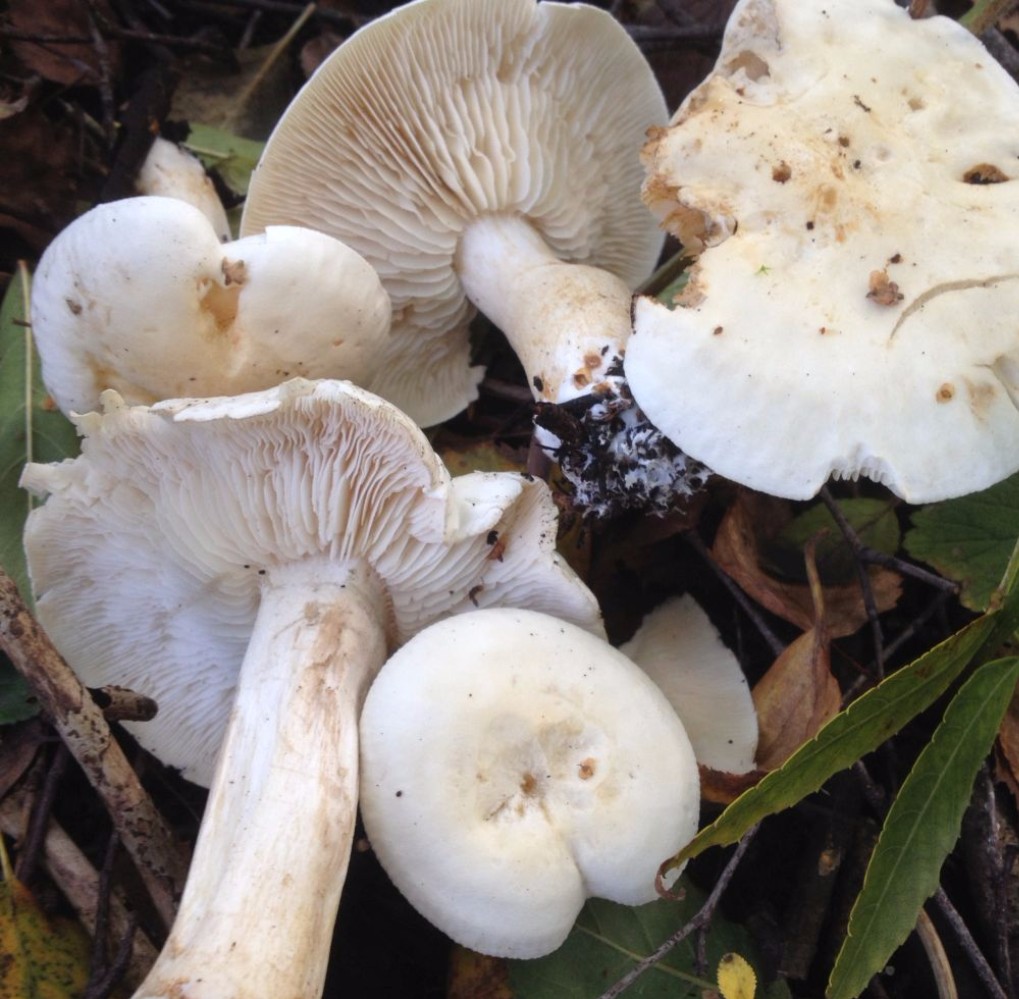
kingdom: Fungi
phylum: Basidiomycota
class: Agaricomycetes
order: Agaricales
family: Tricholomataceae
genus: Tricholoma
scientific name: Tricholoma stiparophyllum
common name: hvid ridderhat
